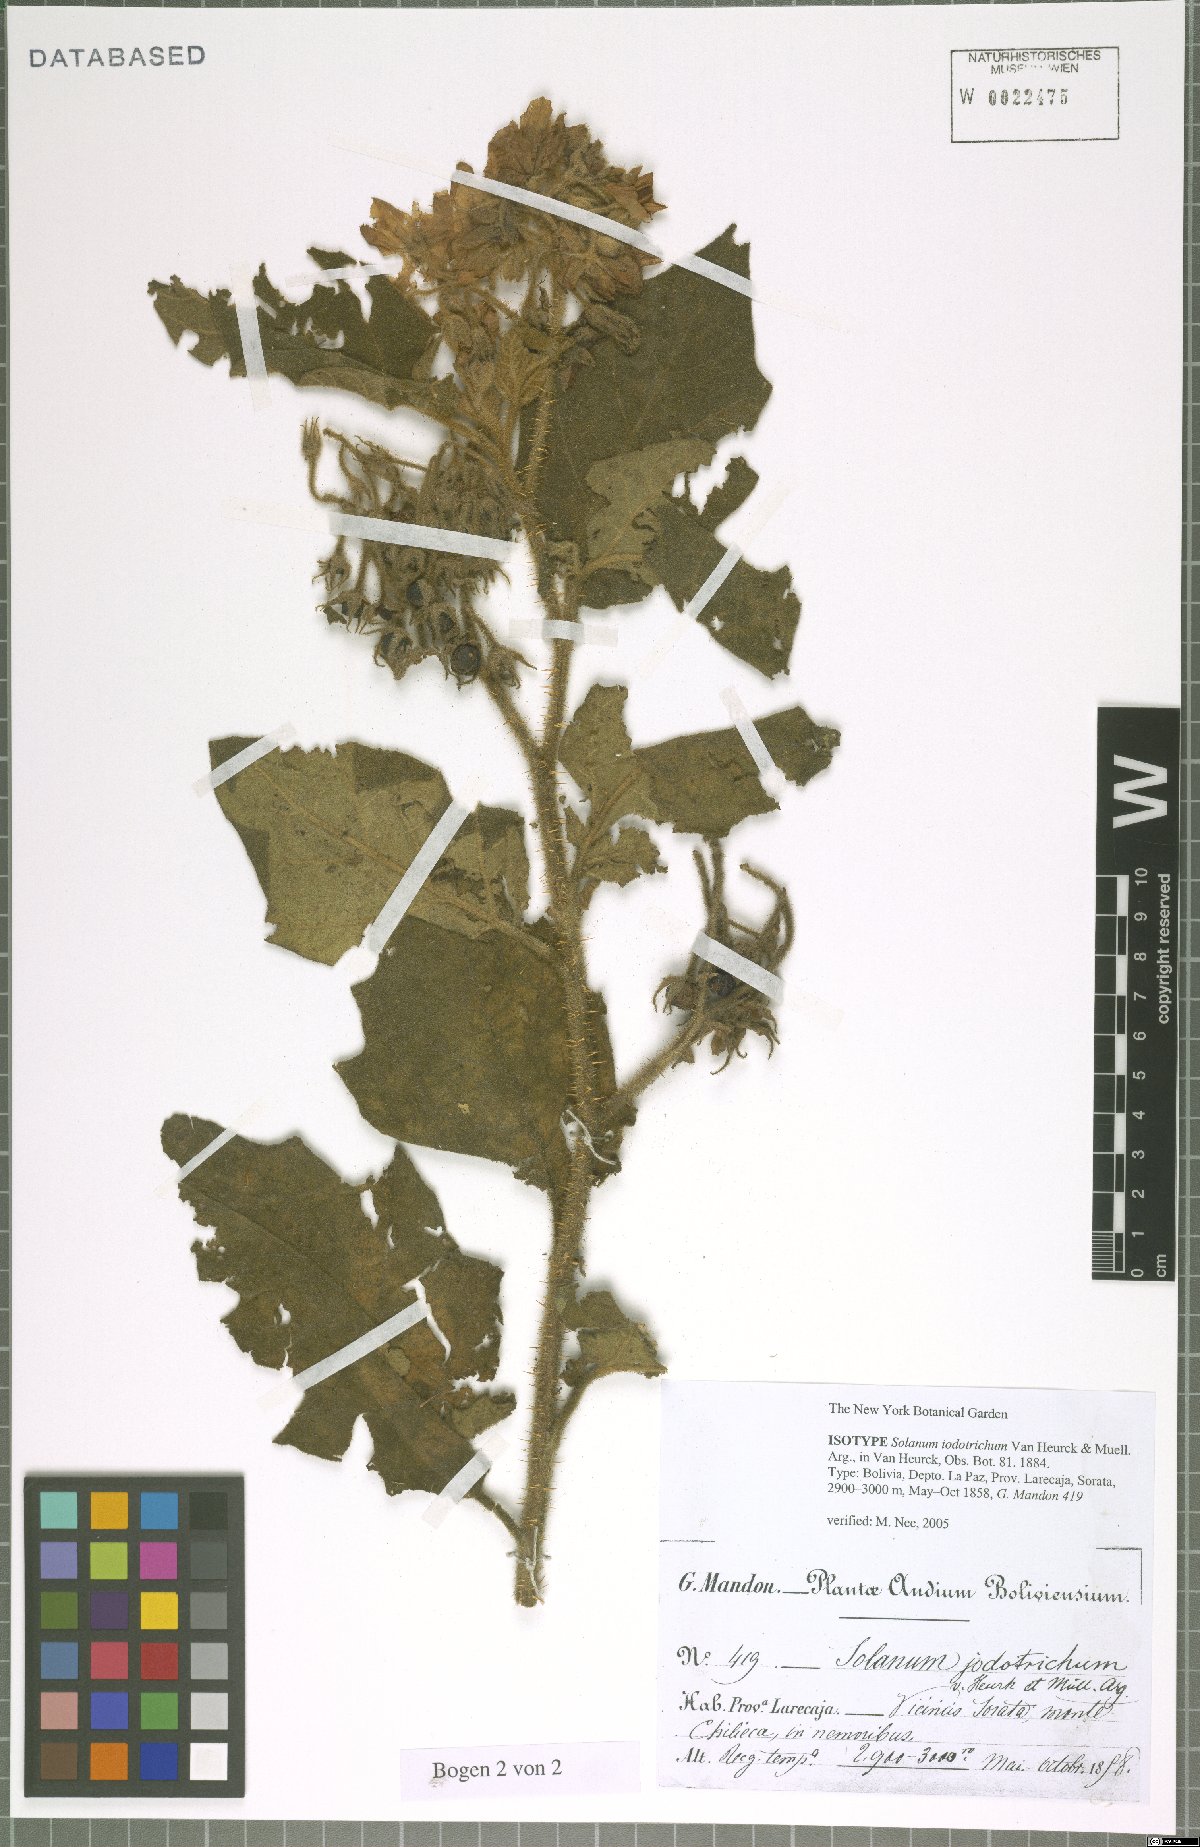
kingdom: Plantae
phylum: Tracheophyta
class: Magnoliopsida
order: Solanales
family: Solanaceae
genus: Solanum
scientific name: Solanum iodotrichum
